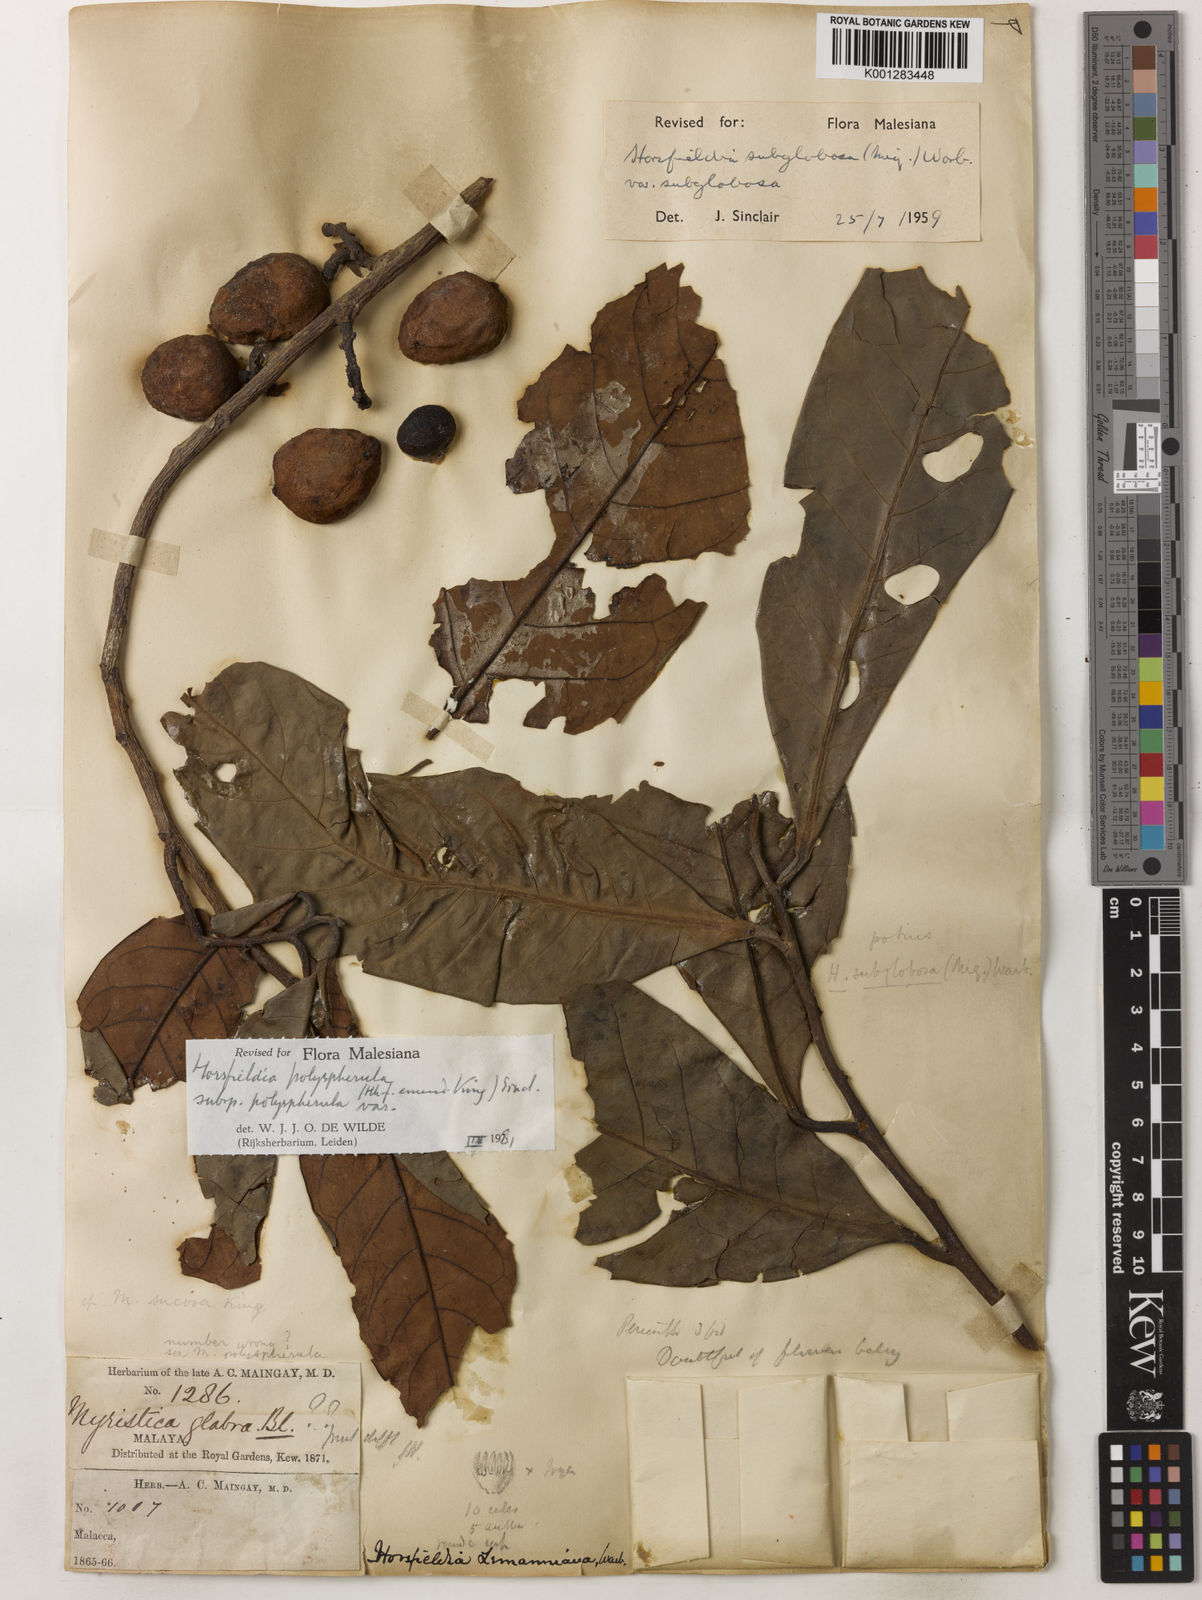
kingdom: Plantae
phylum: Tracheophyta
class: Magnoliopsida
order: Magnoliales
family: Myristicaceae
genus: Horsfieldia
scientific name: Horsfieldia polyspherula
